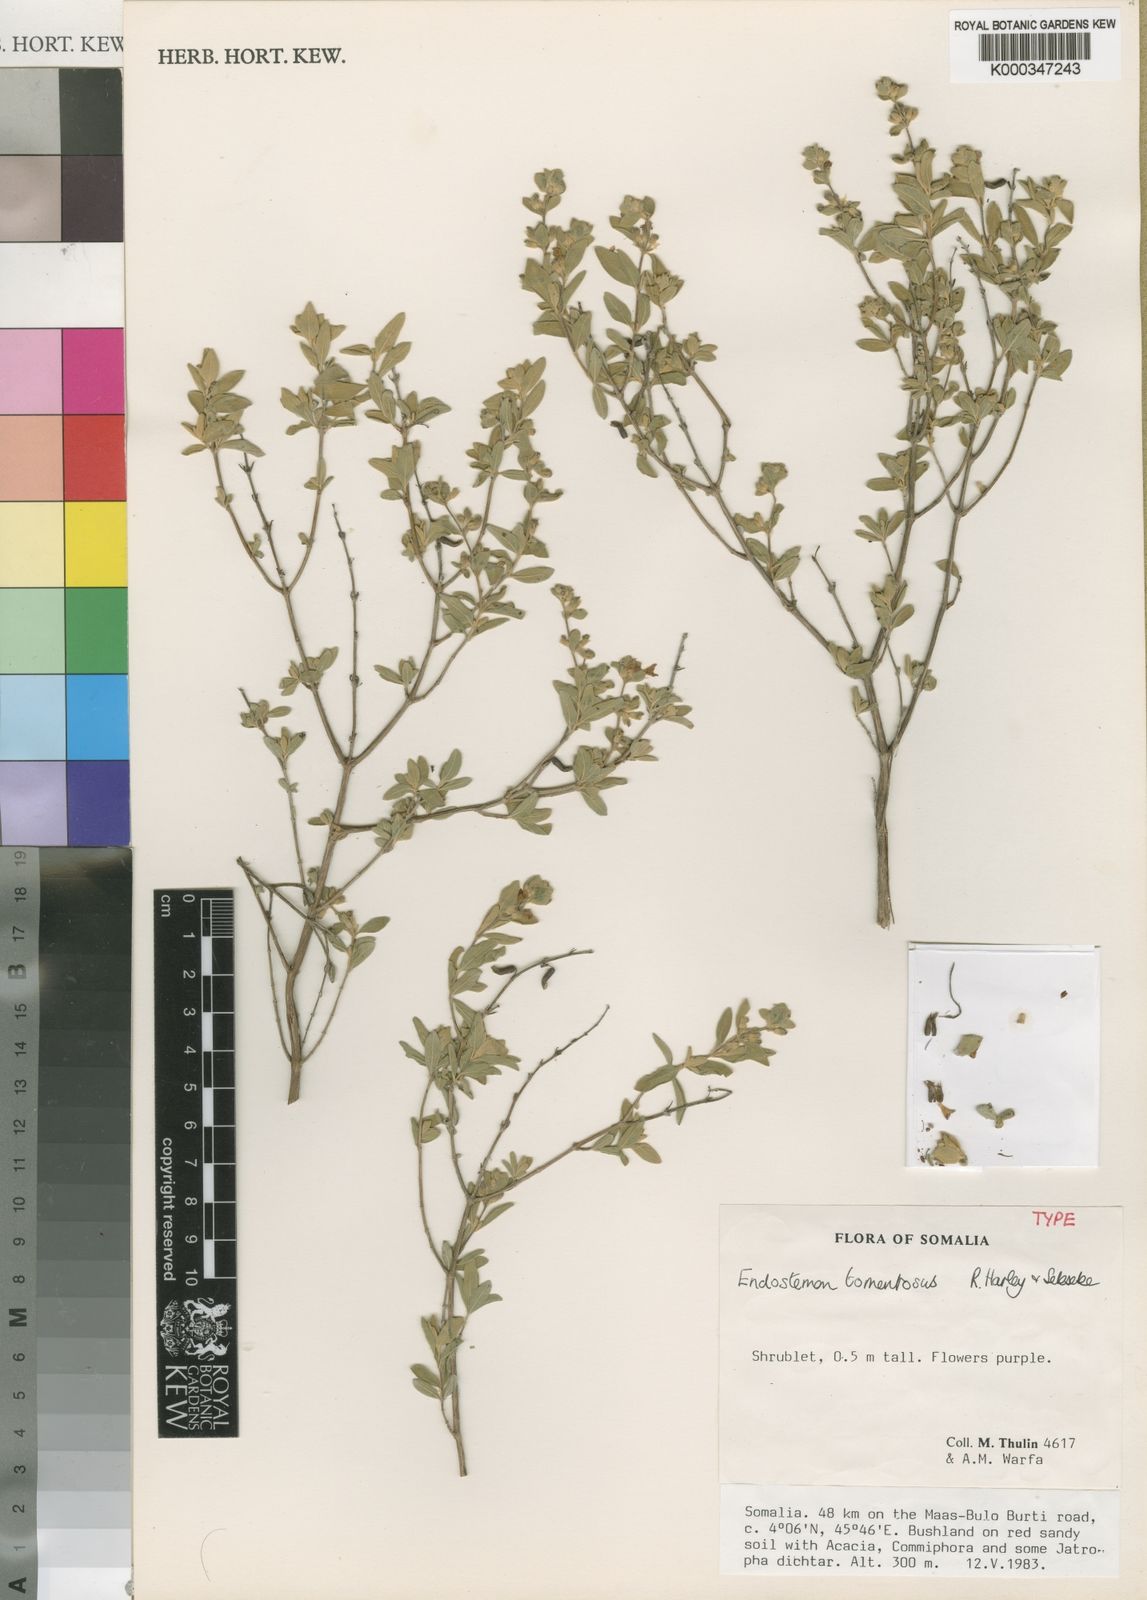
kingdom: Plantae
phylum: Tracheophyta
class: Magnoliopsida
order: Lamiales
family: Lamiaceae
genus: Endostemon
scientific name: Endostemon tomentosus
